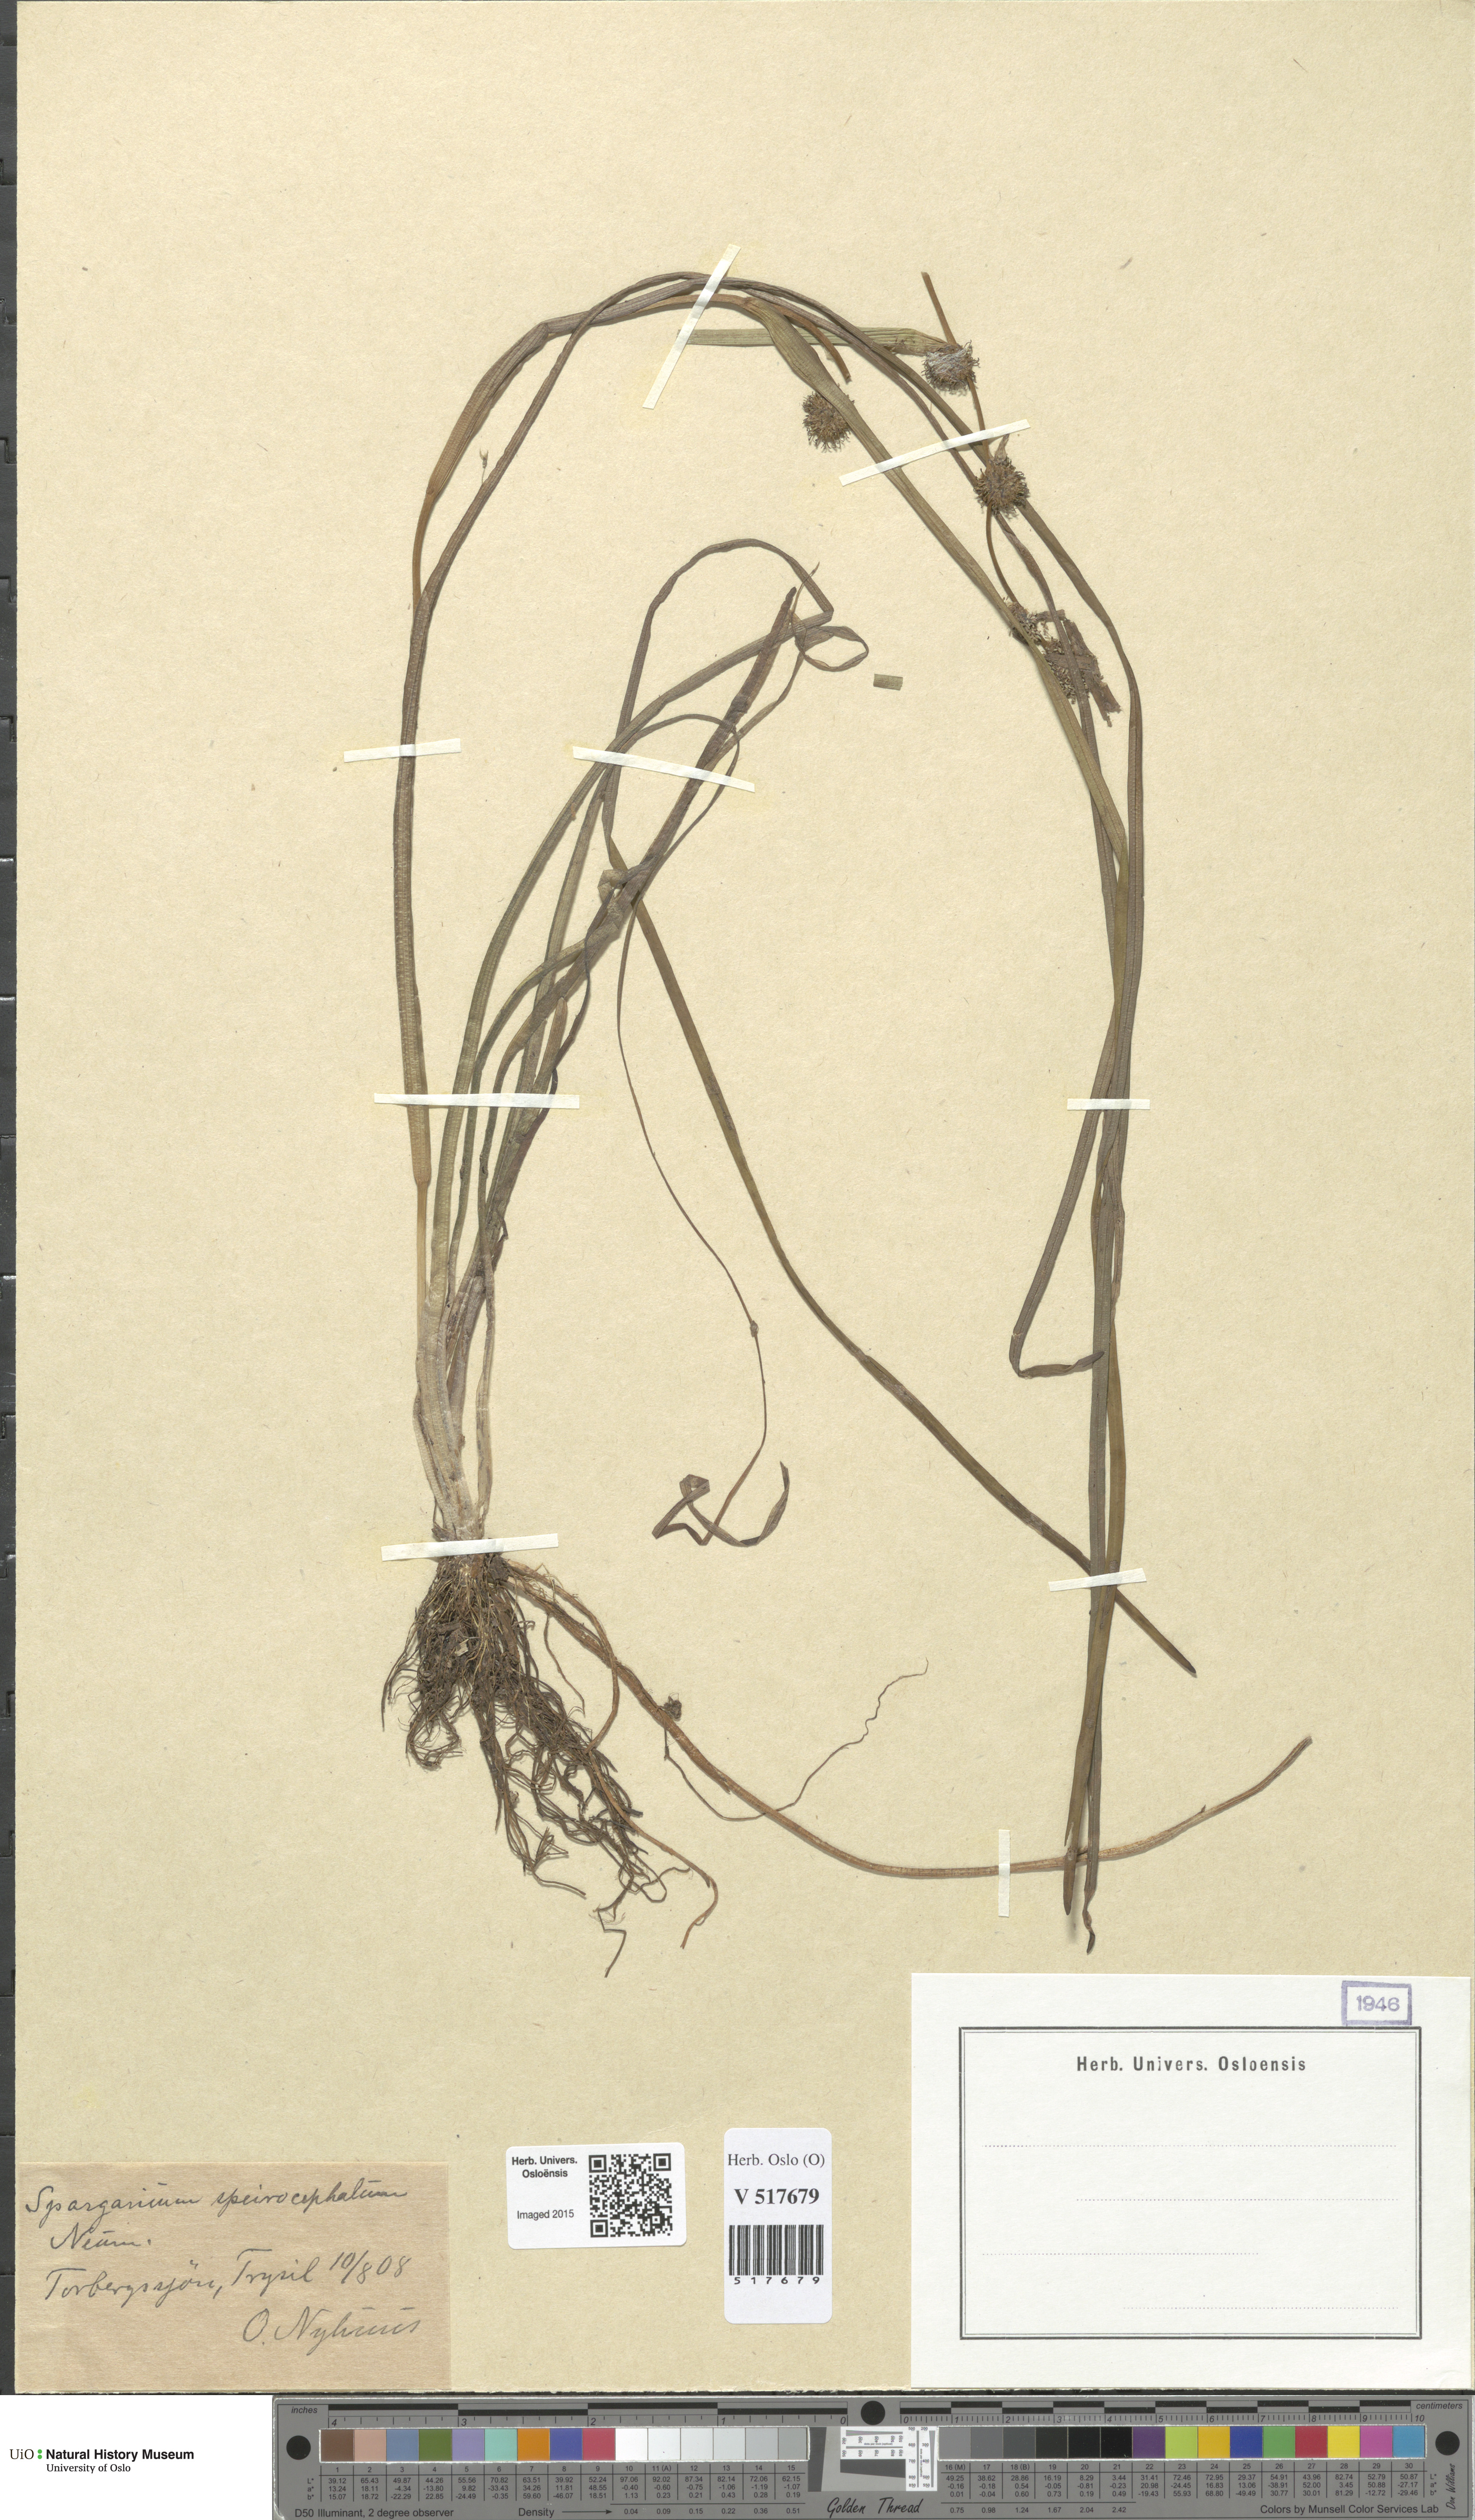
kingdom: Plantae
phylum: Tracheophyta
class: Liliopsida
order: Poales
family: Typhaceae
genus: Sparganium
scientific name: Sparganium
